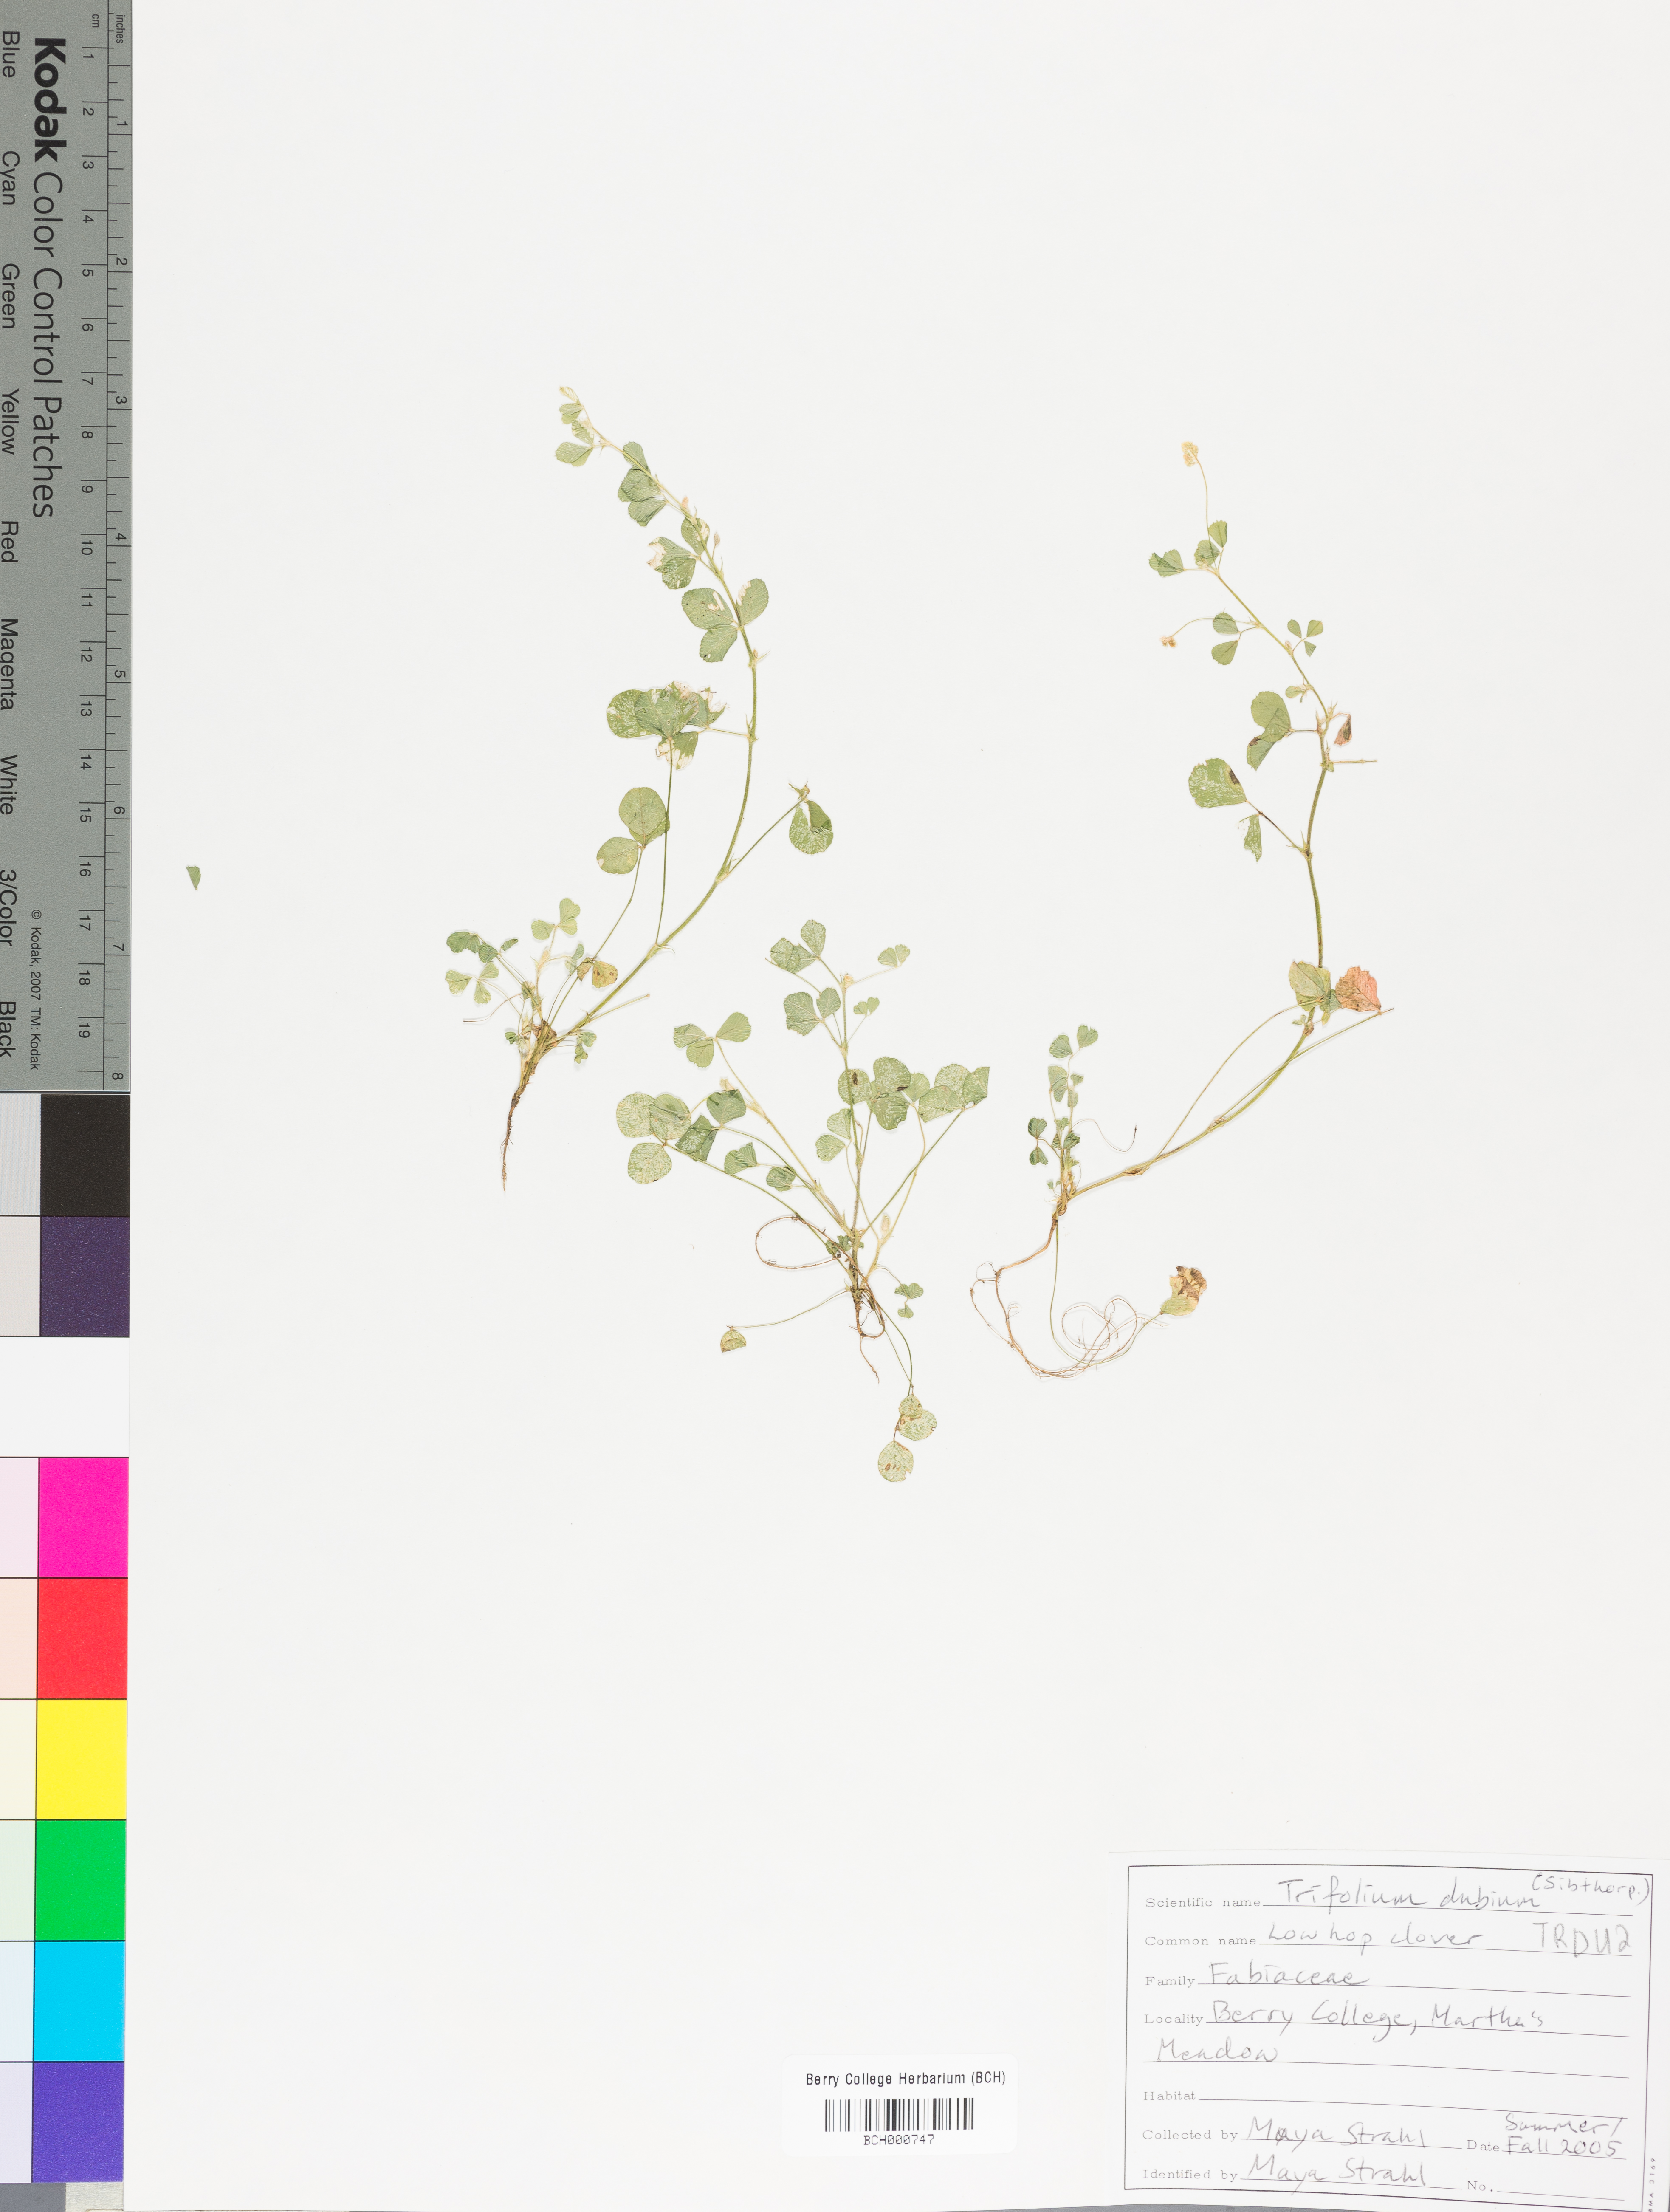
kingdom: Plantae
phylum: Tracheophyta
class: Magnoliopsida
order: Fabales
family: Fabaceae
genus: Trifolium
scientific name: Trifolium dubium
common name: Suckling clover
